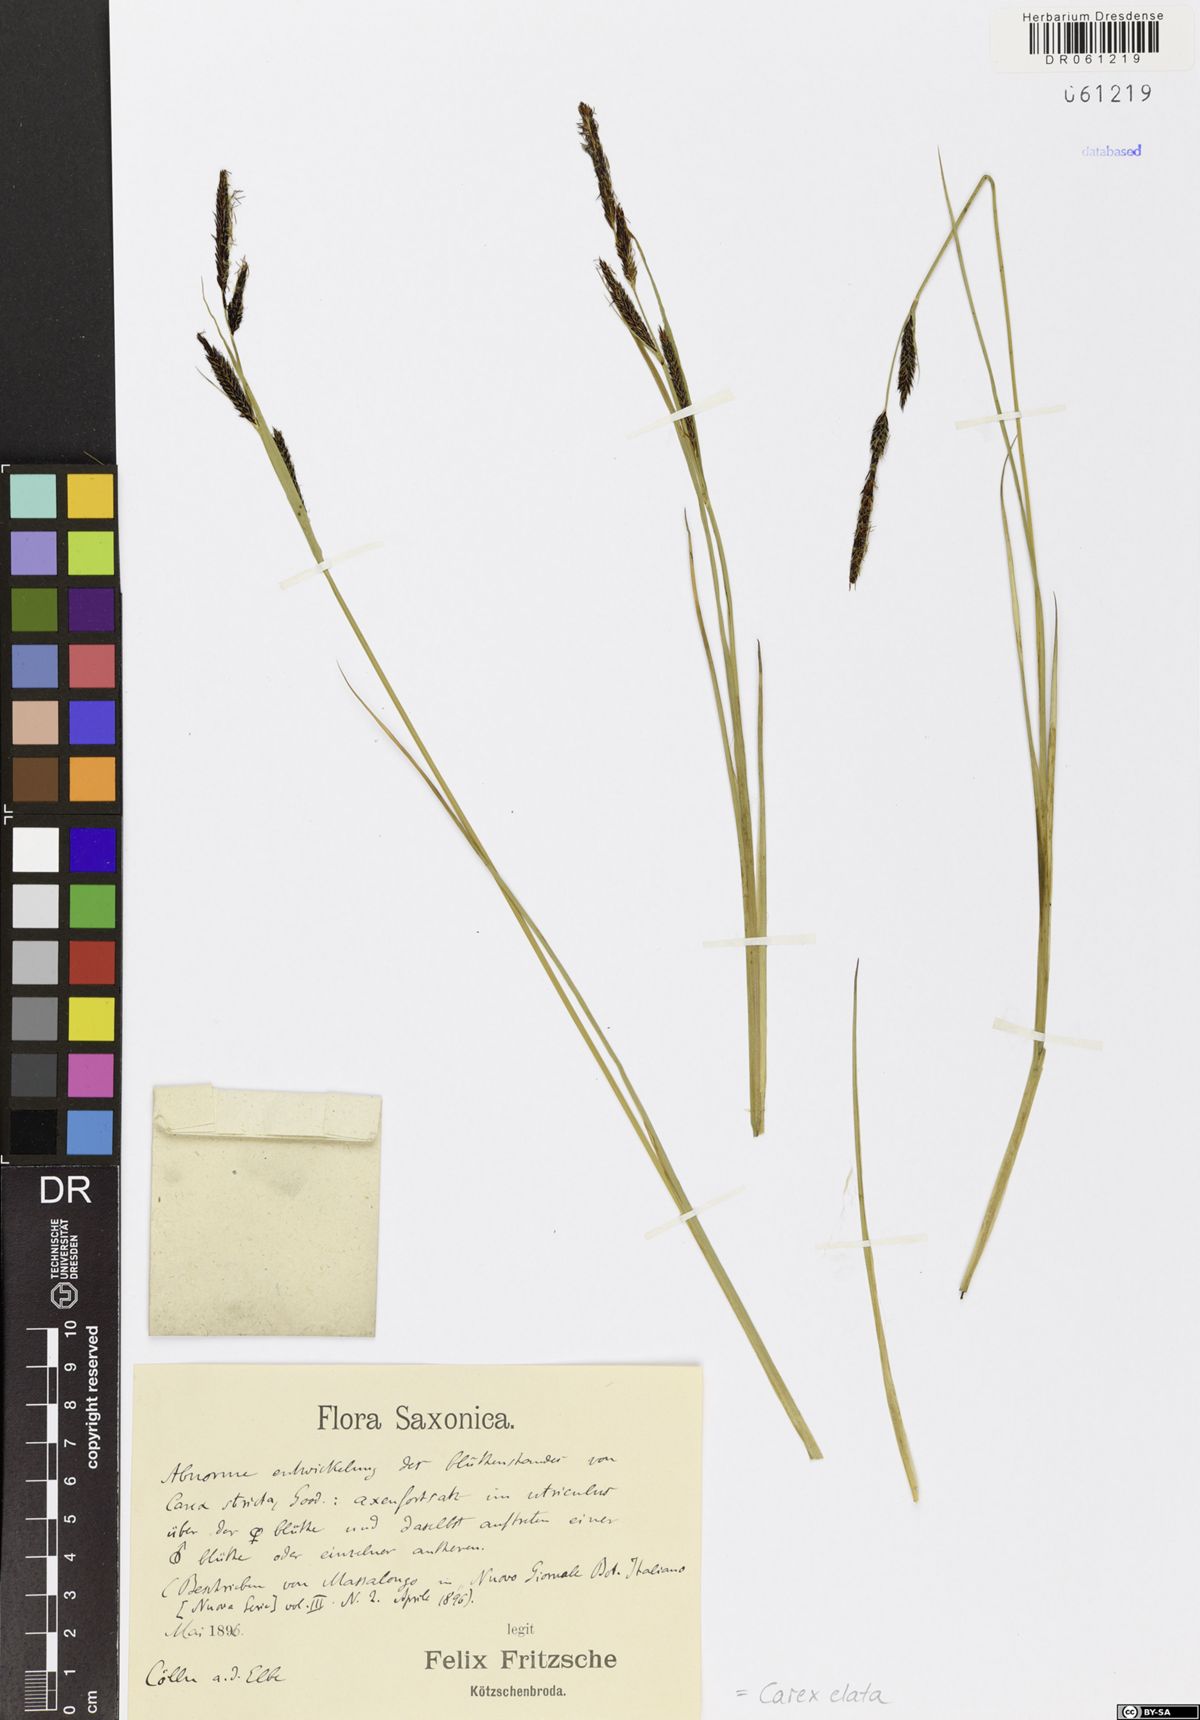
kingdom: Plantae
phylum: Tracheophyta
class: Liliopsida
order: Poales
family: Cyperaceae
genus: Carex
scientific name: Carex elata
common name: Tufted sedge
